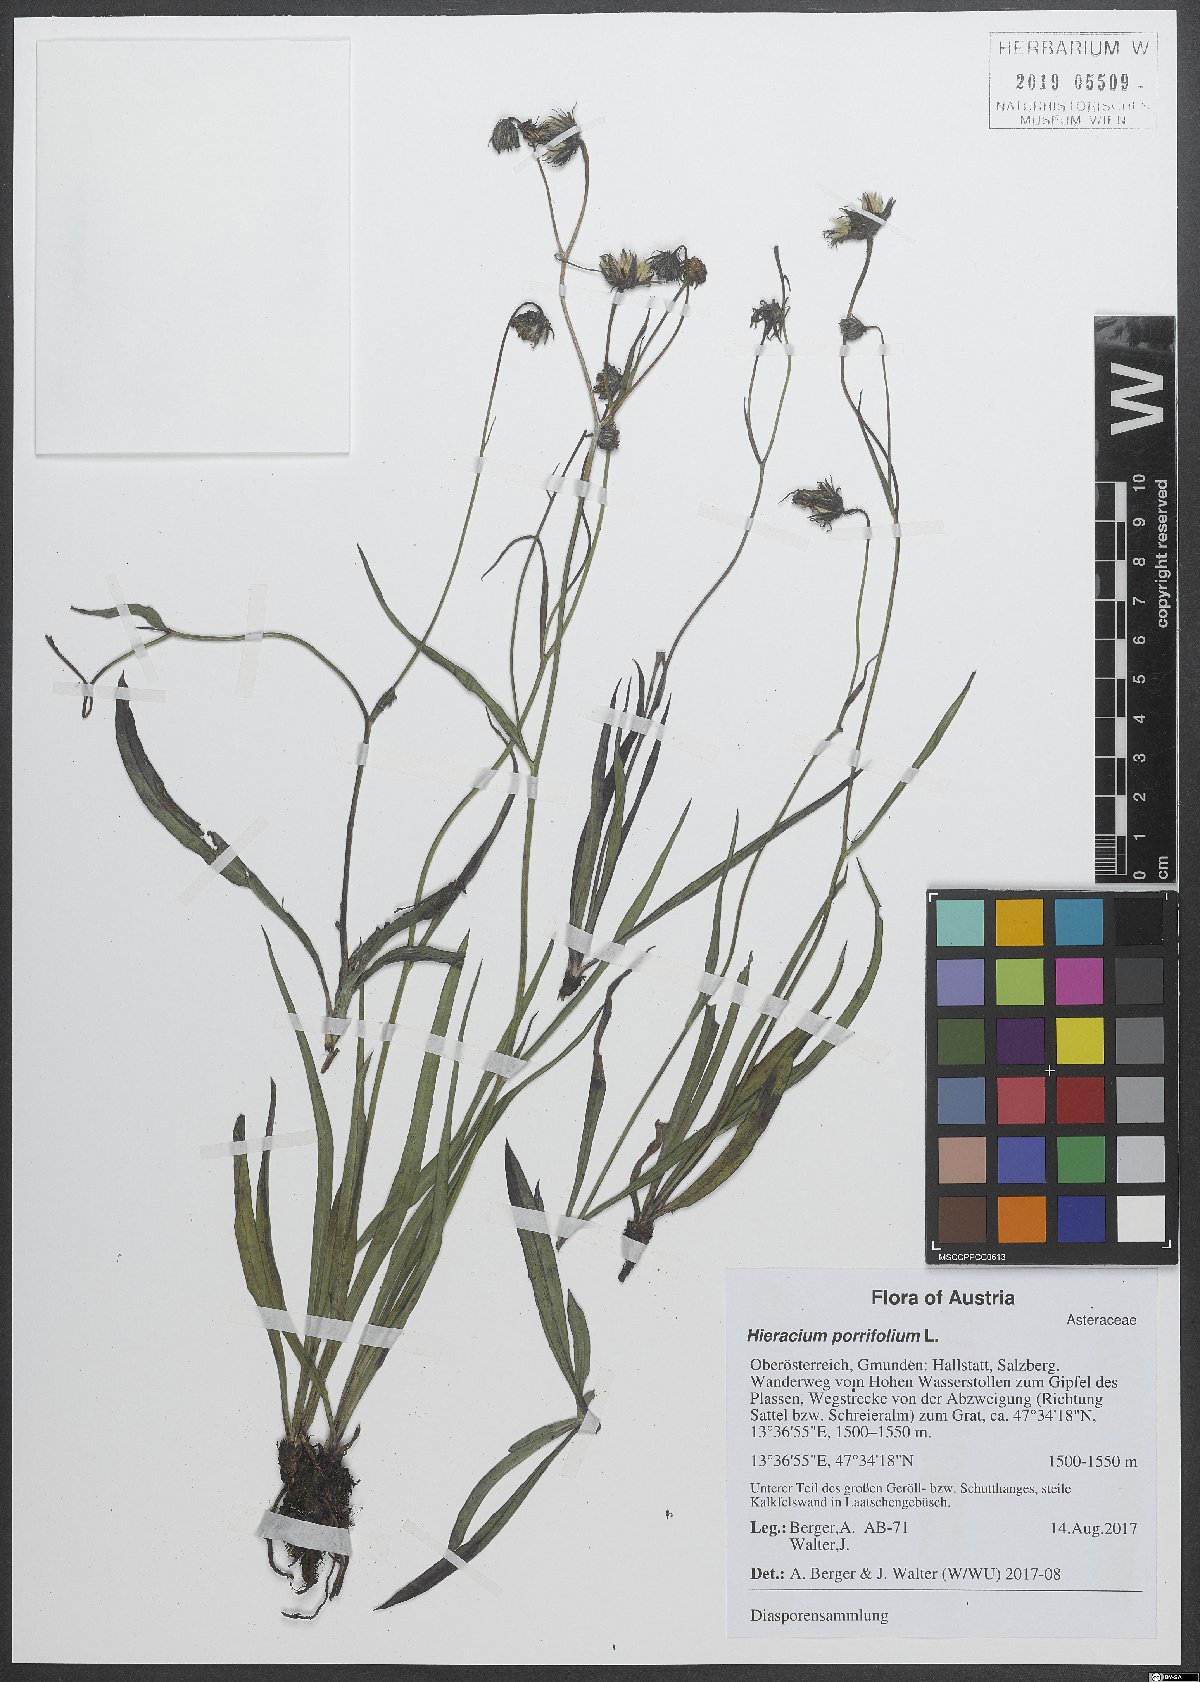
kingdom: Plantae
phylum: Tracheophyta
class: Magnoliopsida
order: Asterales
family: Asteraceae
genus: Hieracium
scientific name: Hieracium porrifolium
